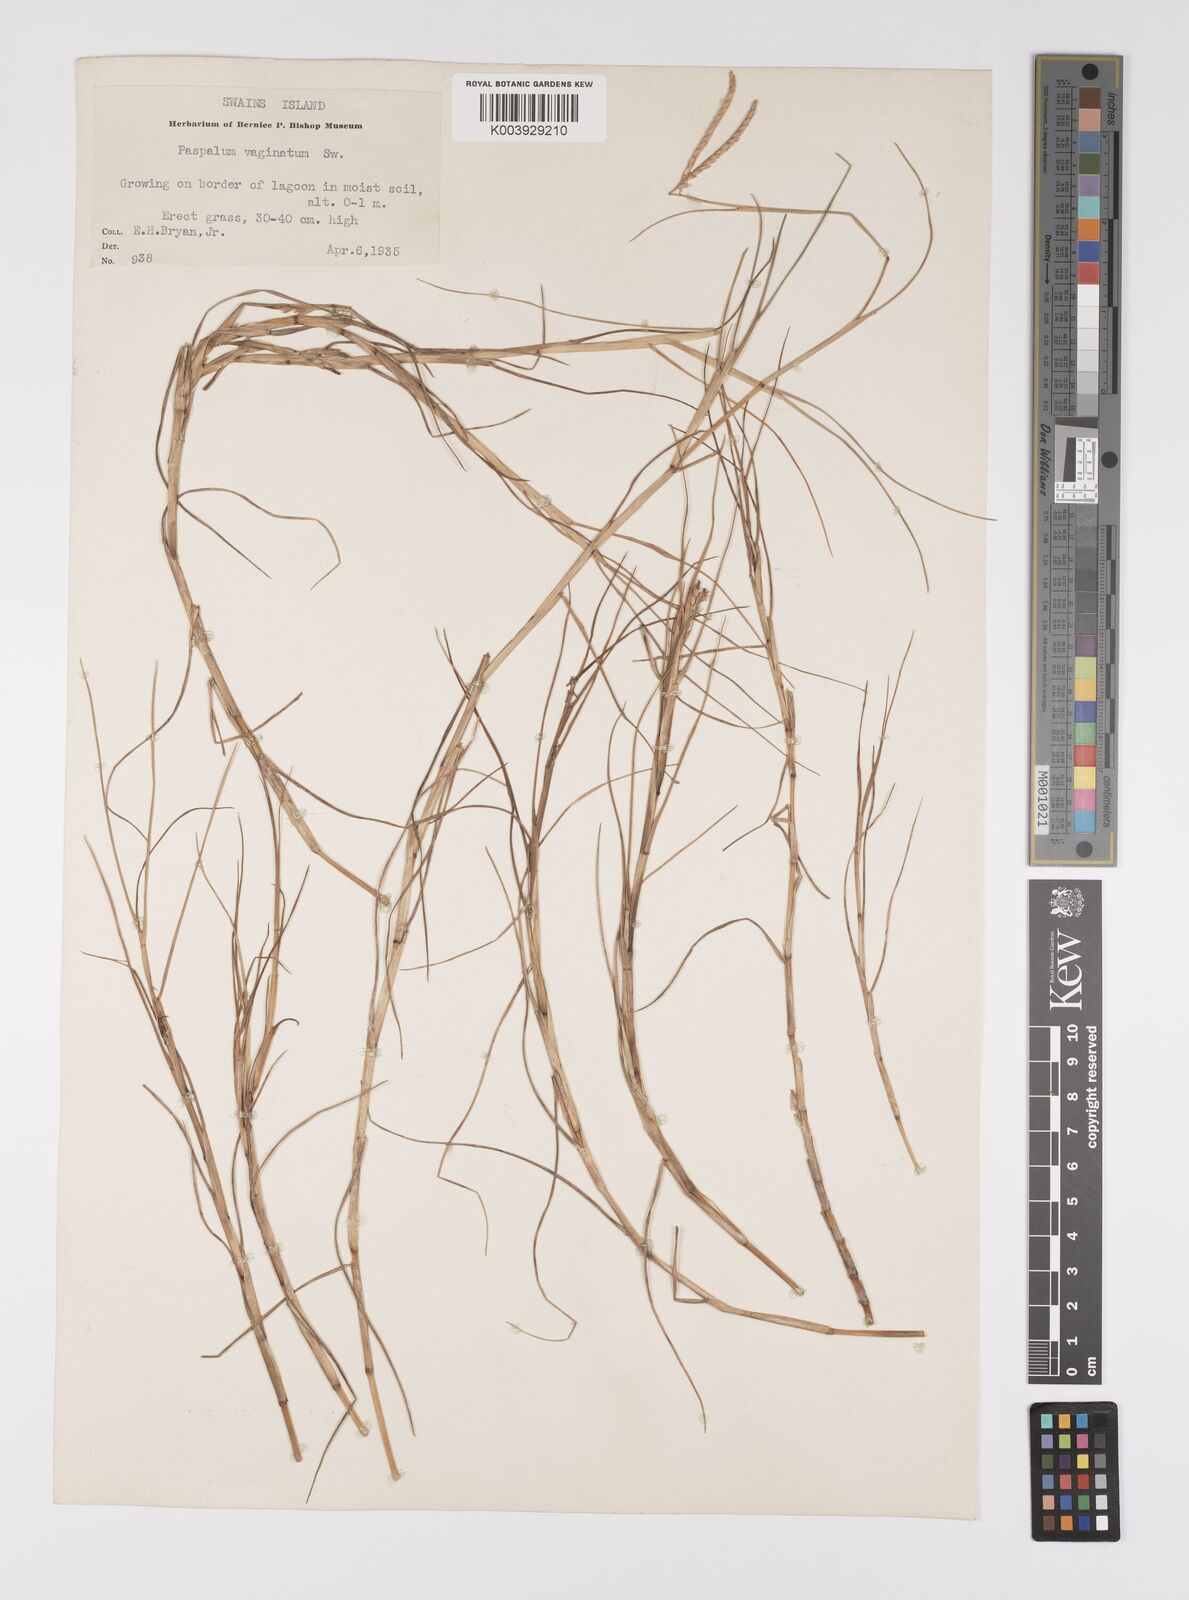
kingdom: Plantae
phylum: Tracheophyta
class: Liliopsida
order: Poales
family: Poaceae
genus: Paspalum
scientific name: Paspalum vaginatum
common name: Seashore paspalum
